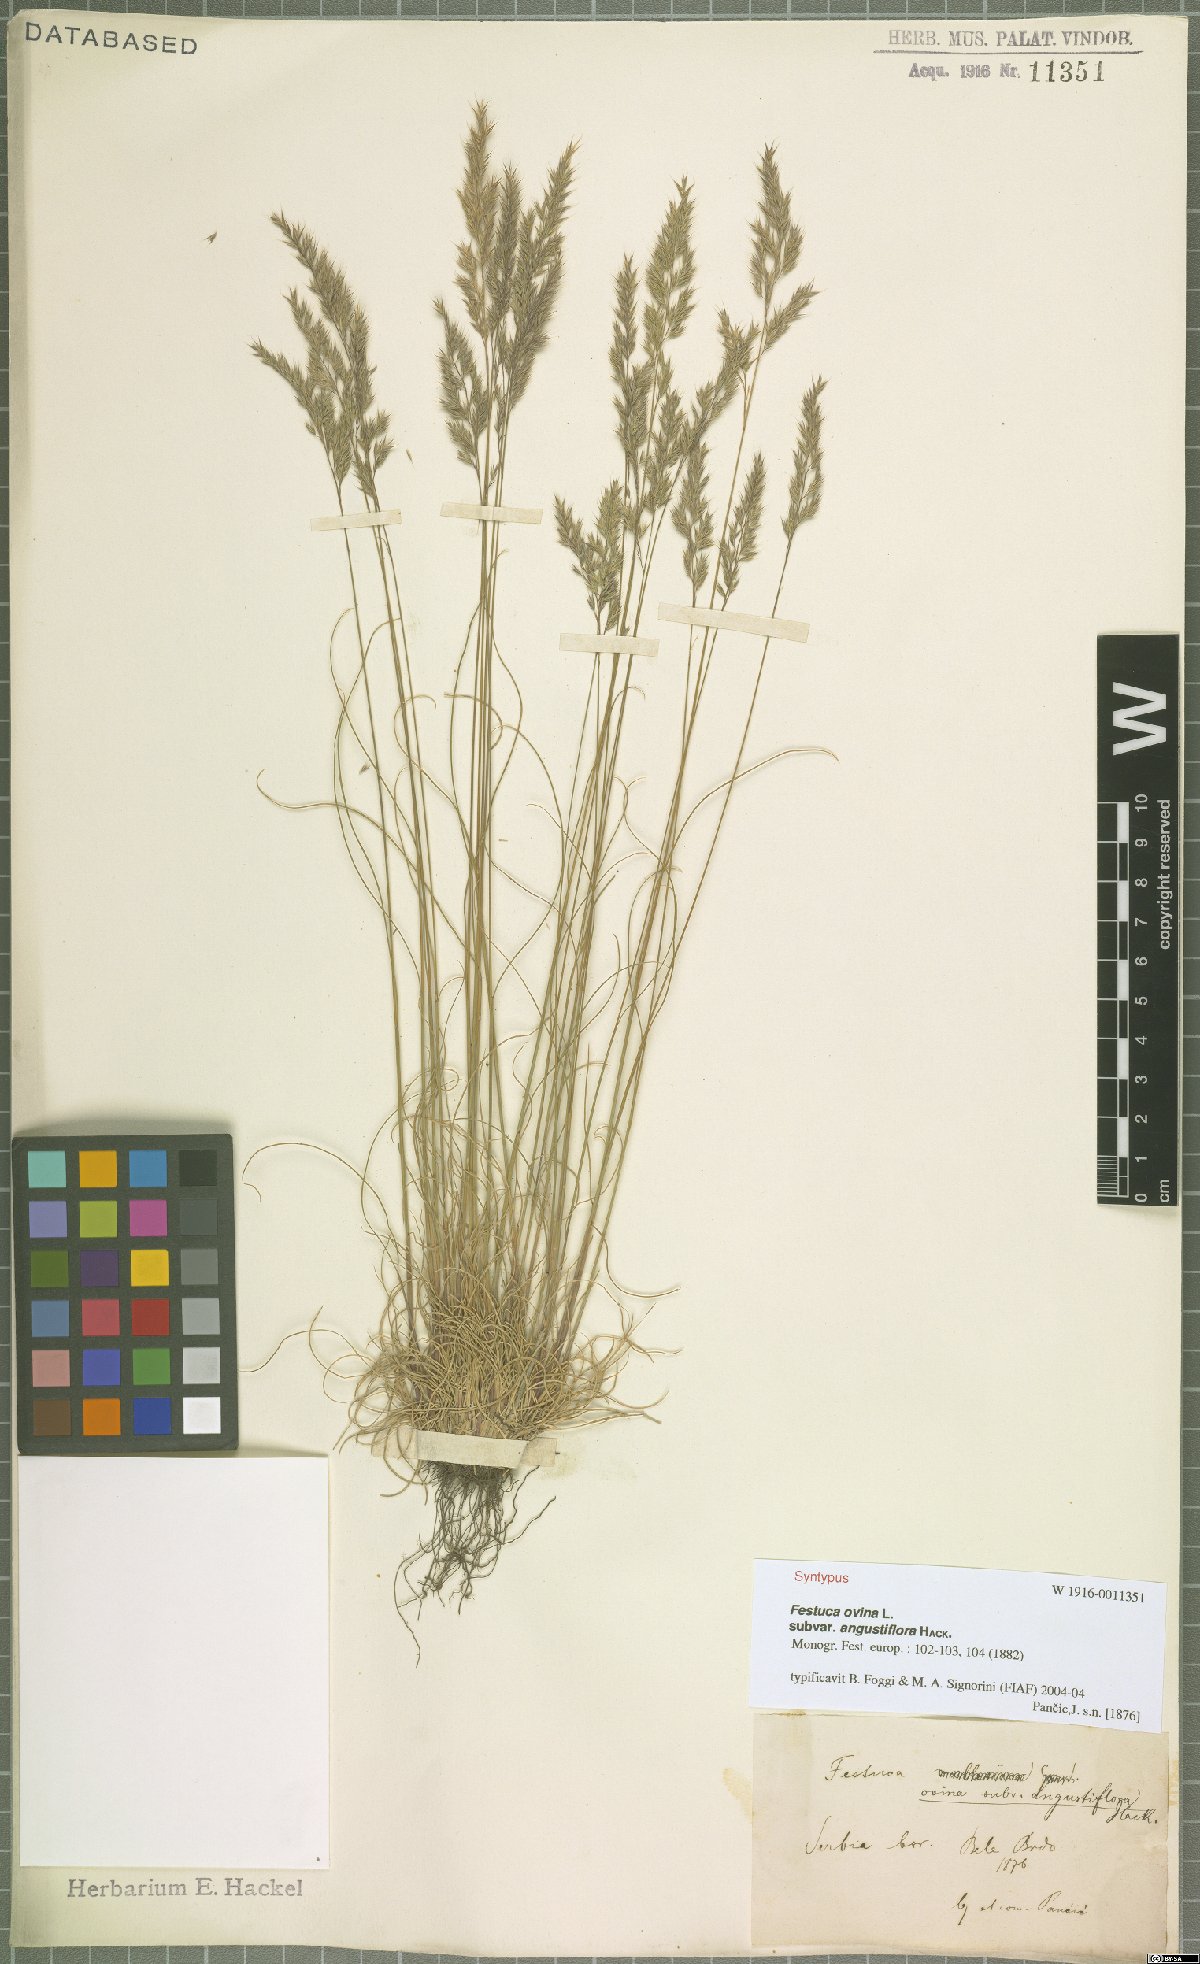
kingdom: Plantae
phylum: Tracheophyta
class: Liliopsida
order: Poales
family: Poaceae
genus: Festuca
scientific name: Festuca ovina
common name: Sheep fescue
